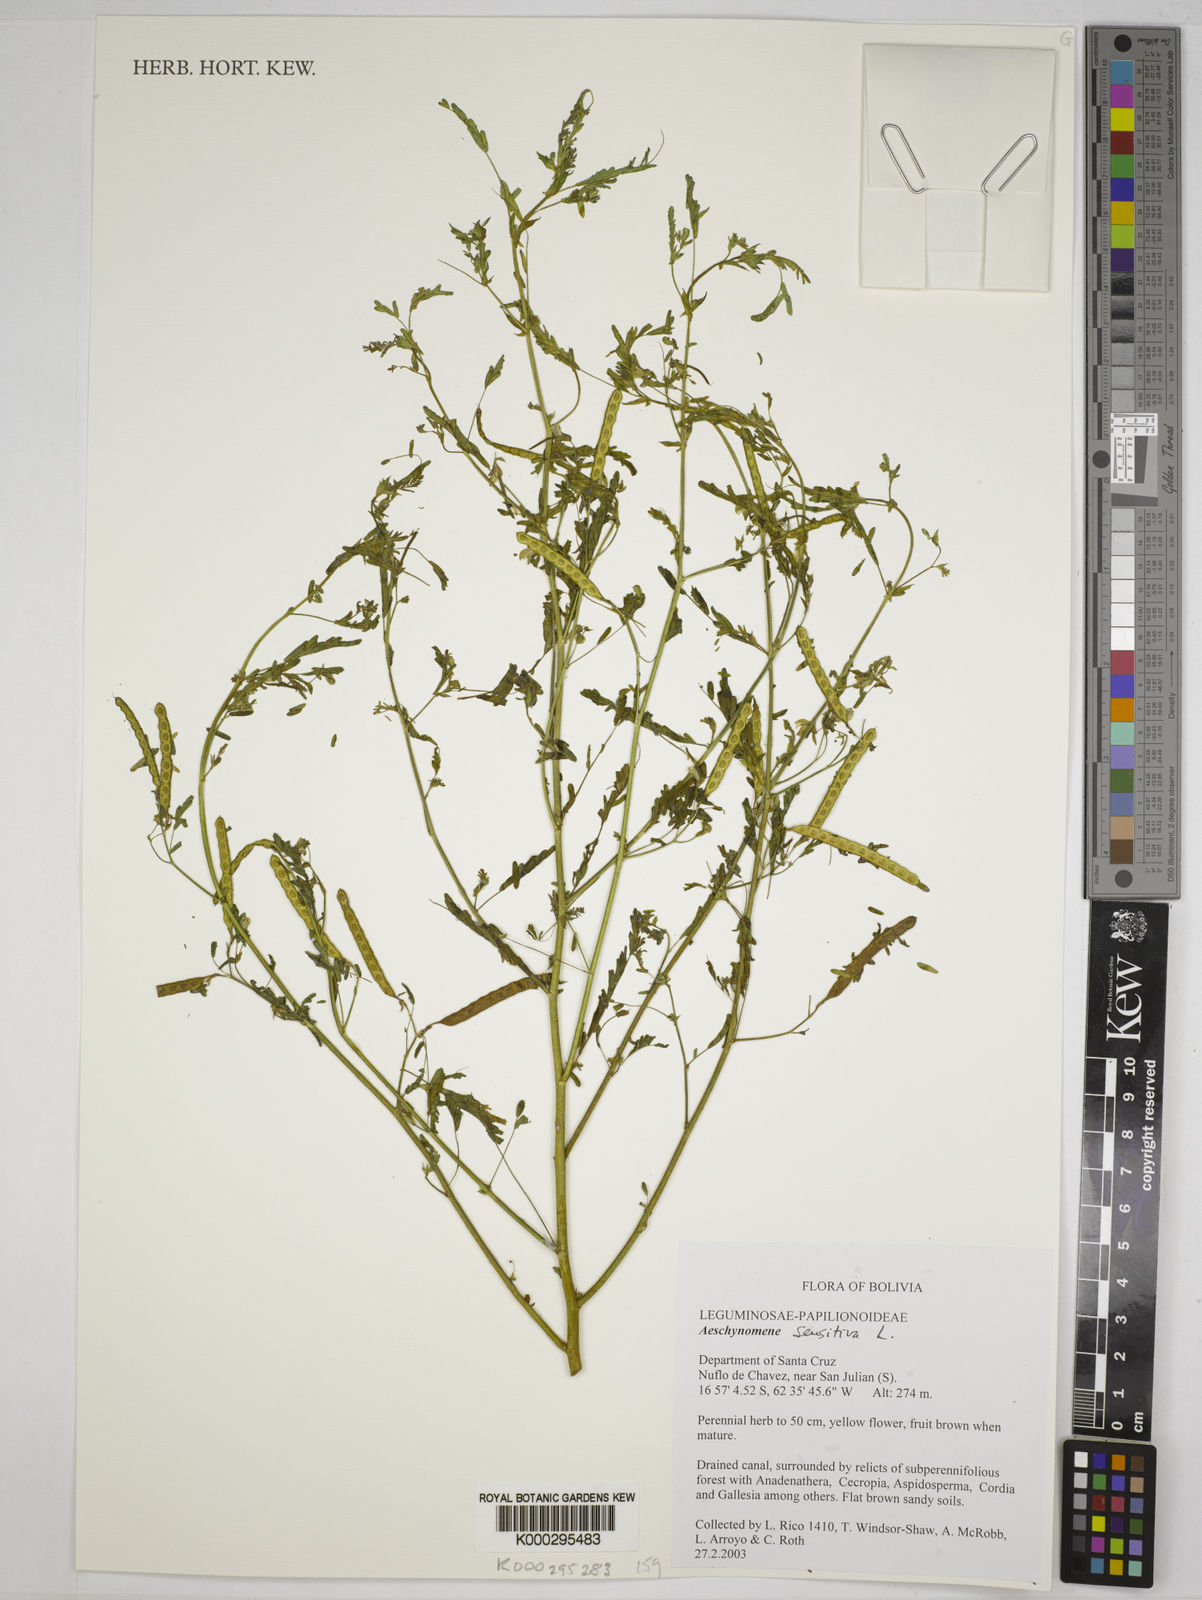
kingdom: Plantae
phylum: Tracheophyta
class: Magnoliopsida
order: Fabales
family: Fabaceae
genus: Aeschynomene
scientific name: Aeschynomene
